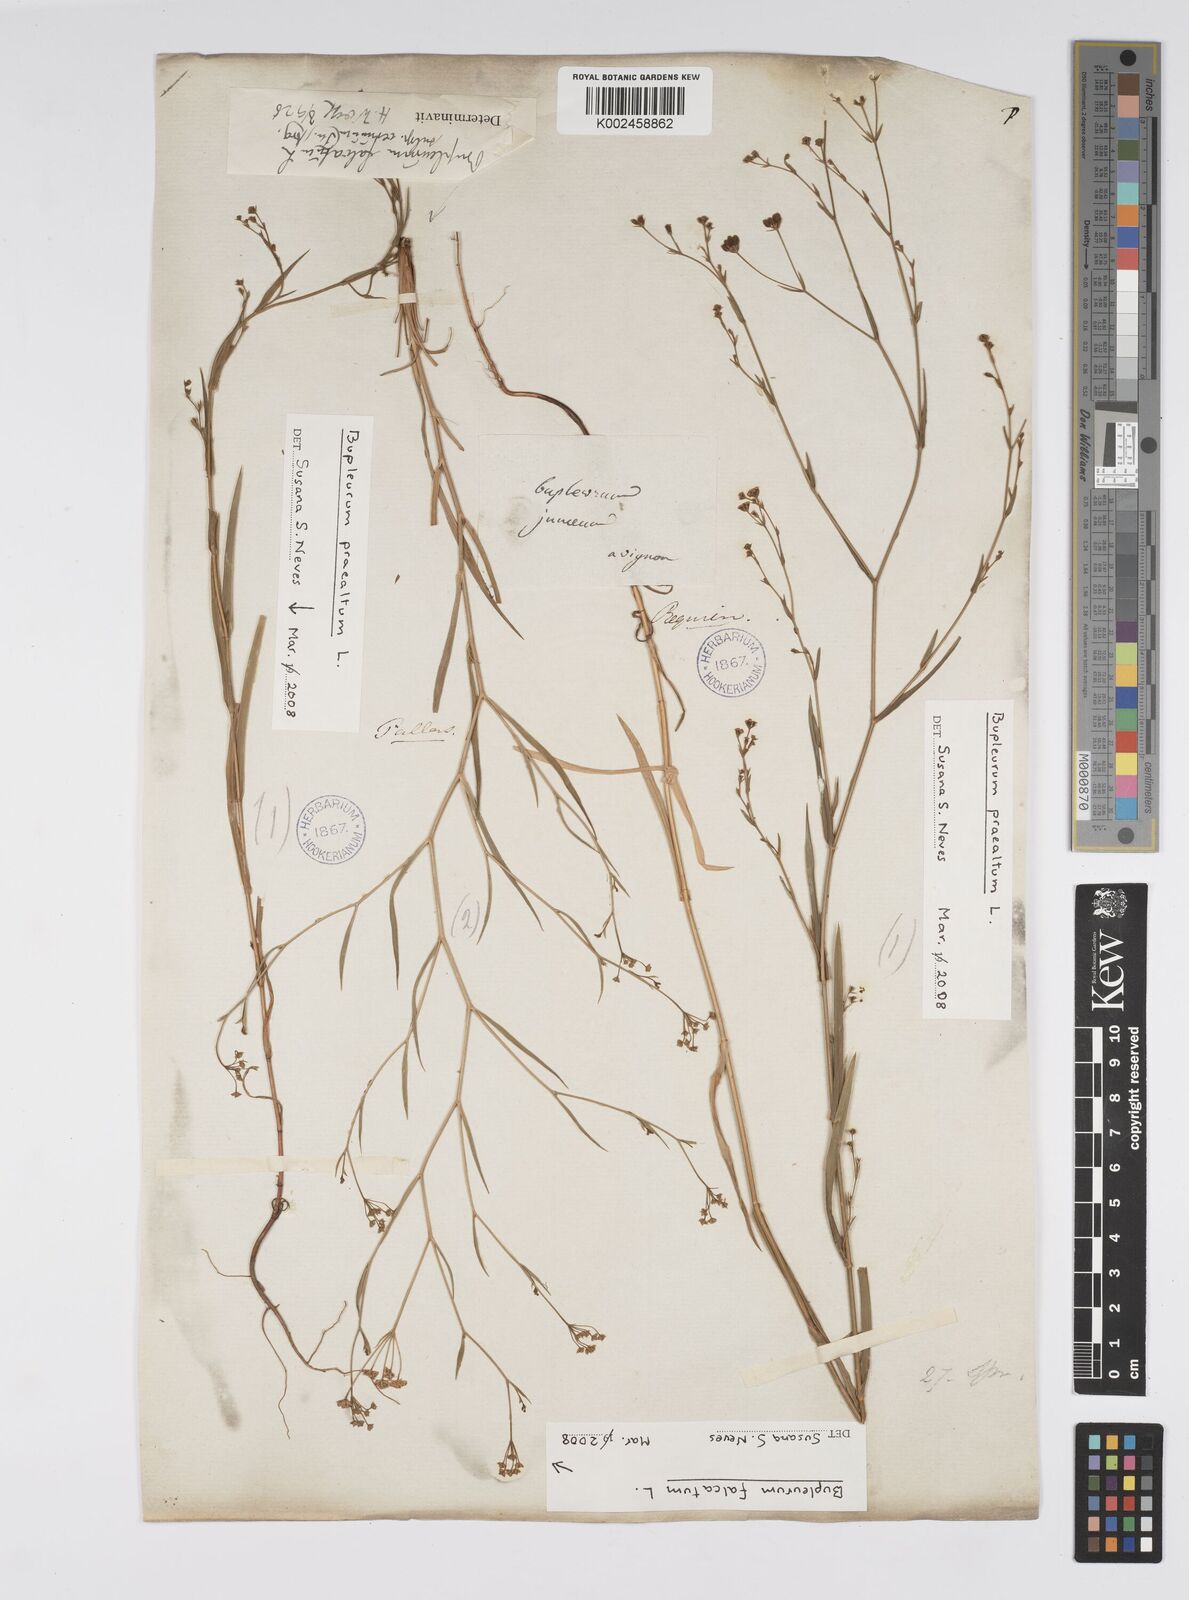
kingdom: Plantae
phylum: Tracheophyta
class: Magnoliopsida
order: Apiales
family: Apiaceae
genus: Bupleurum
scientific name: Bupleurum falcatum
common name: Sickle-leaved hare's-ear
